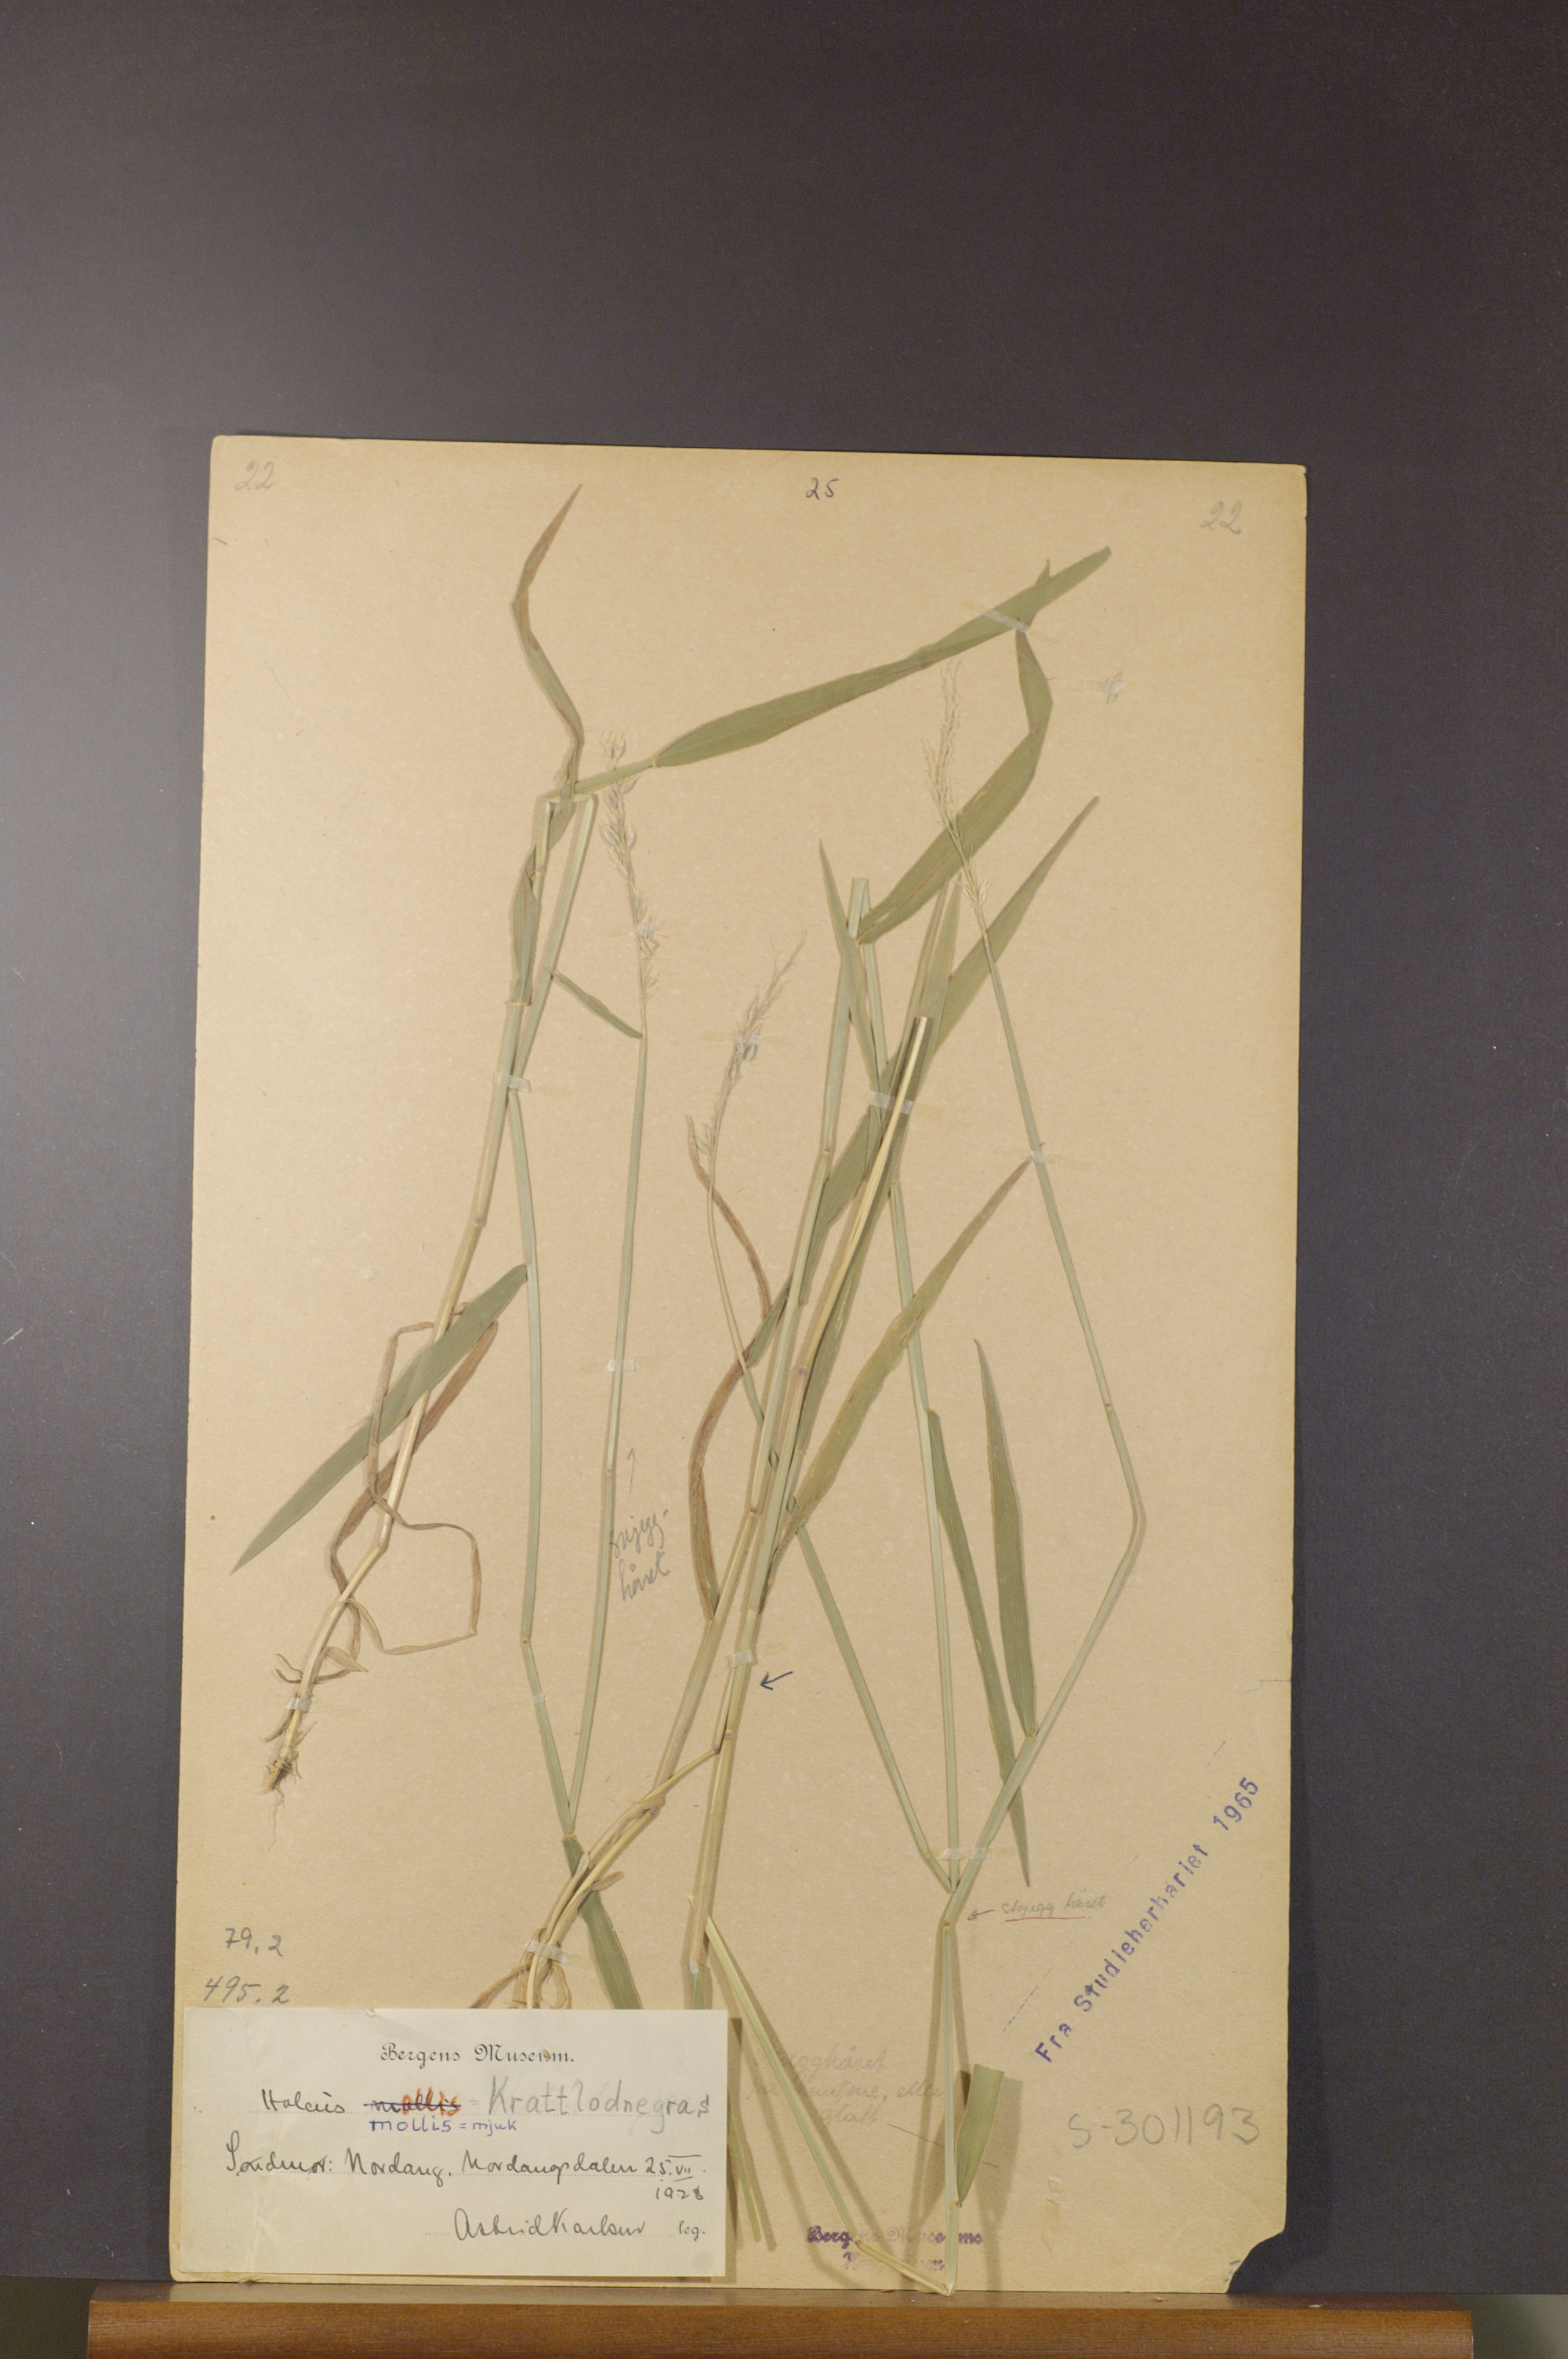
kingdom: Plantae
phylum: Tracheophyta
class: Liliopsida
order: Poales
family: Poaceae
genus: Holcus
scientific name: Holcus mollis
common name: Creeping velvetgrass
